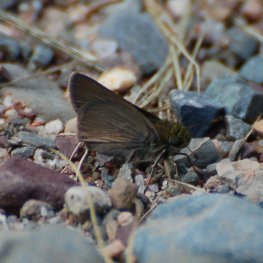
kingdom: Animalia
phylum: Arthropoda
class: Insecta
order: Lepidoptera
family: Hesperiidae
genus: Euphyes
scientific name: Euphyes vestris
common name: Dun Skipper
